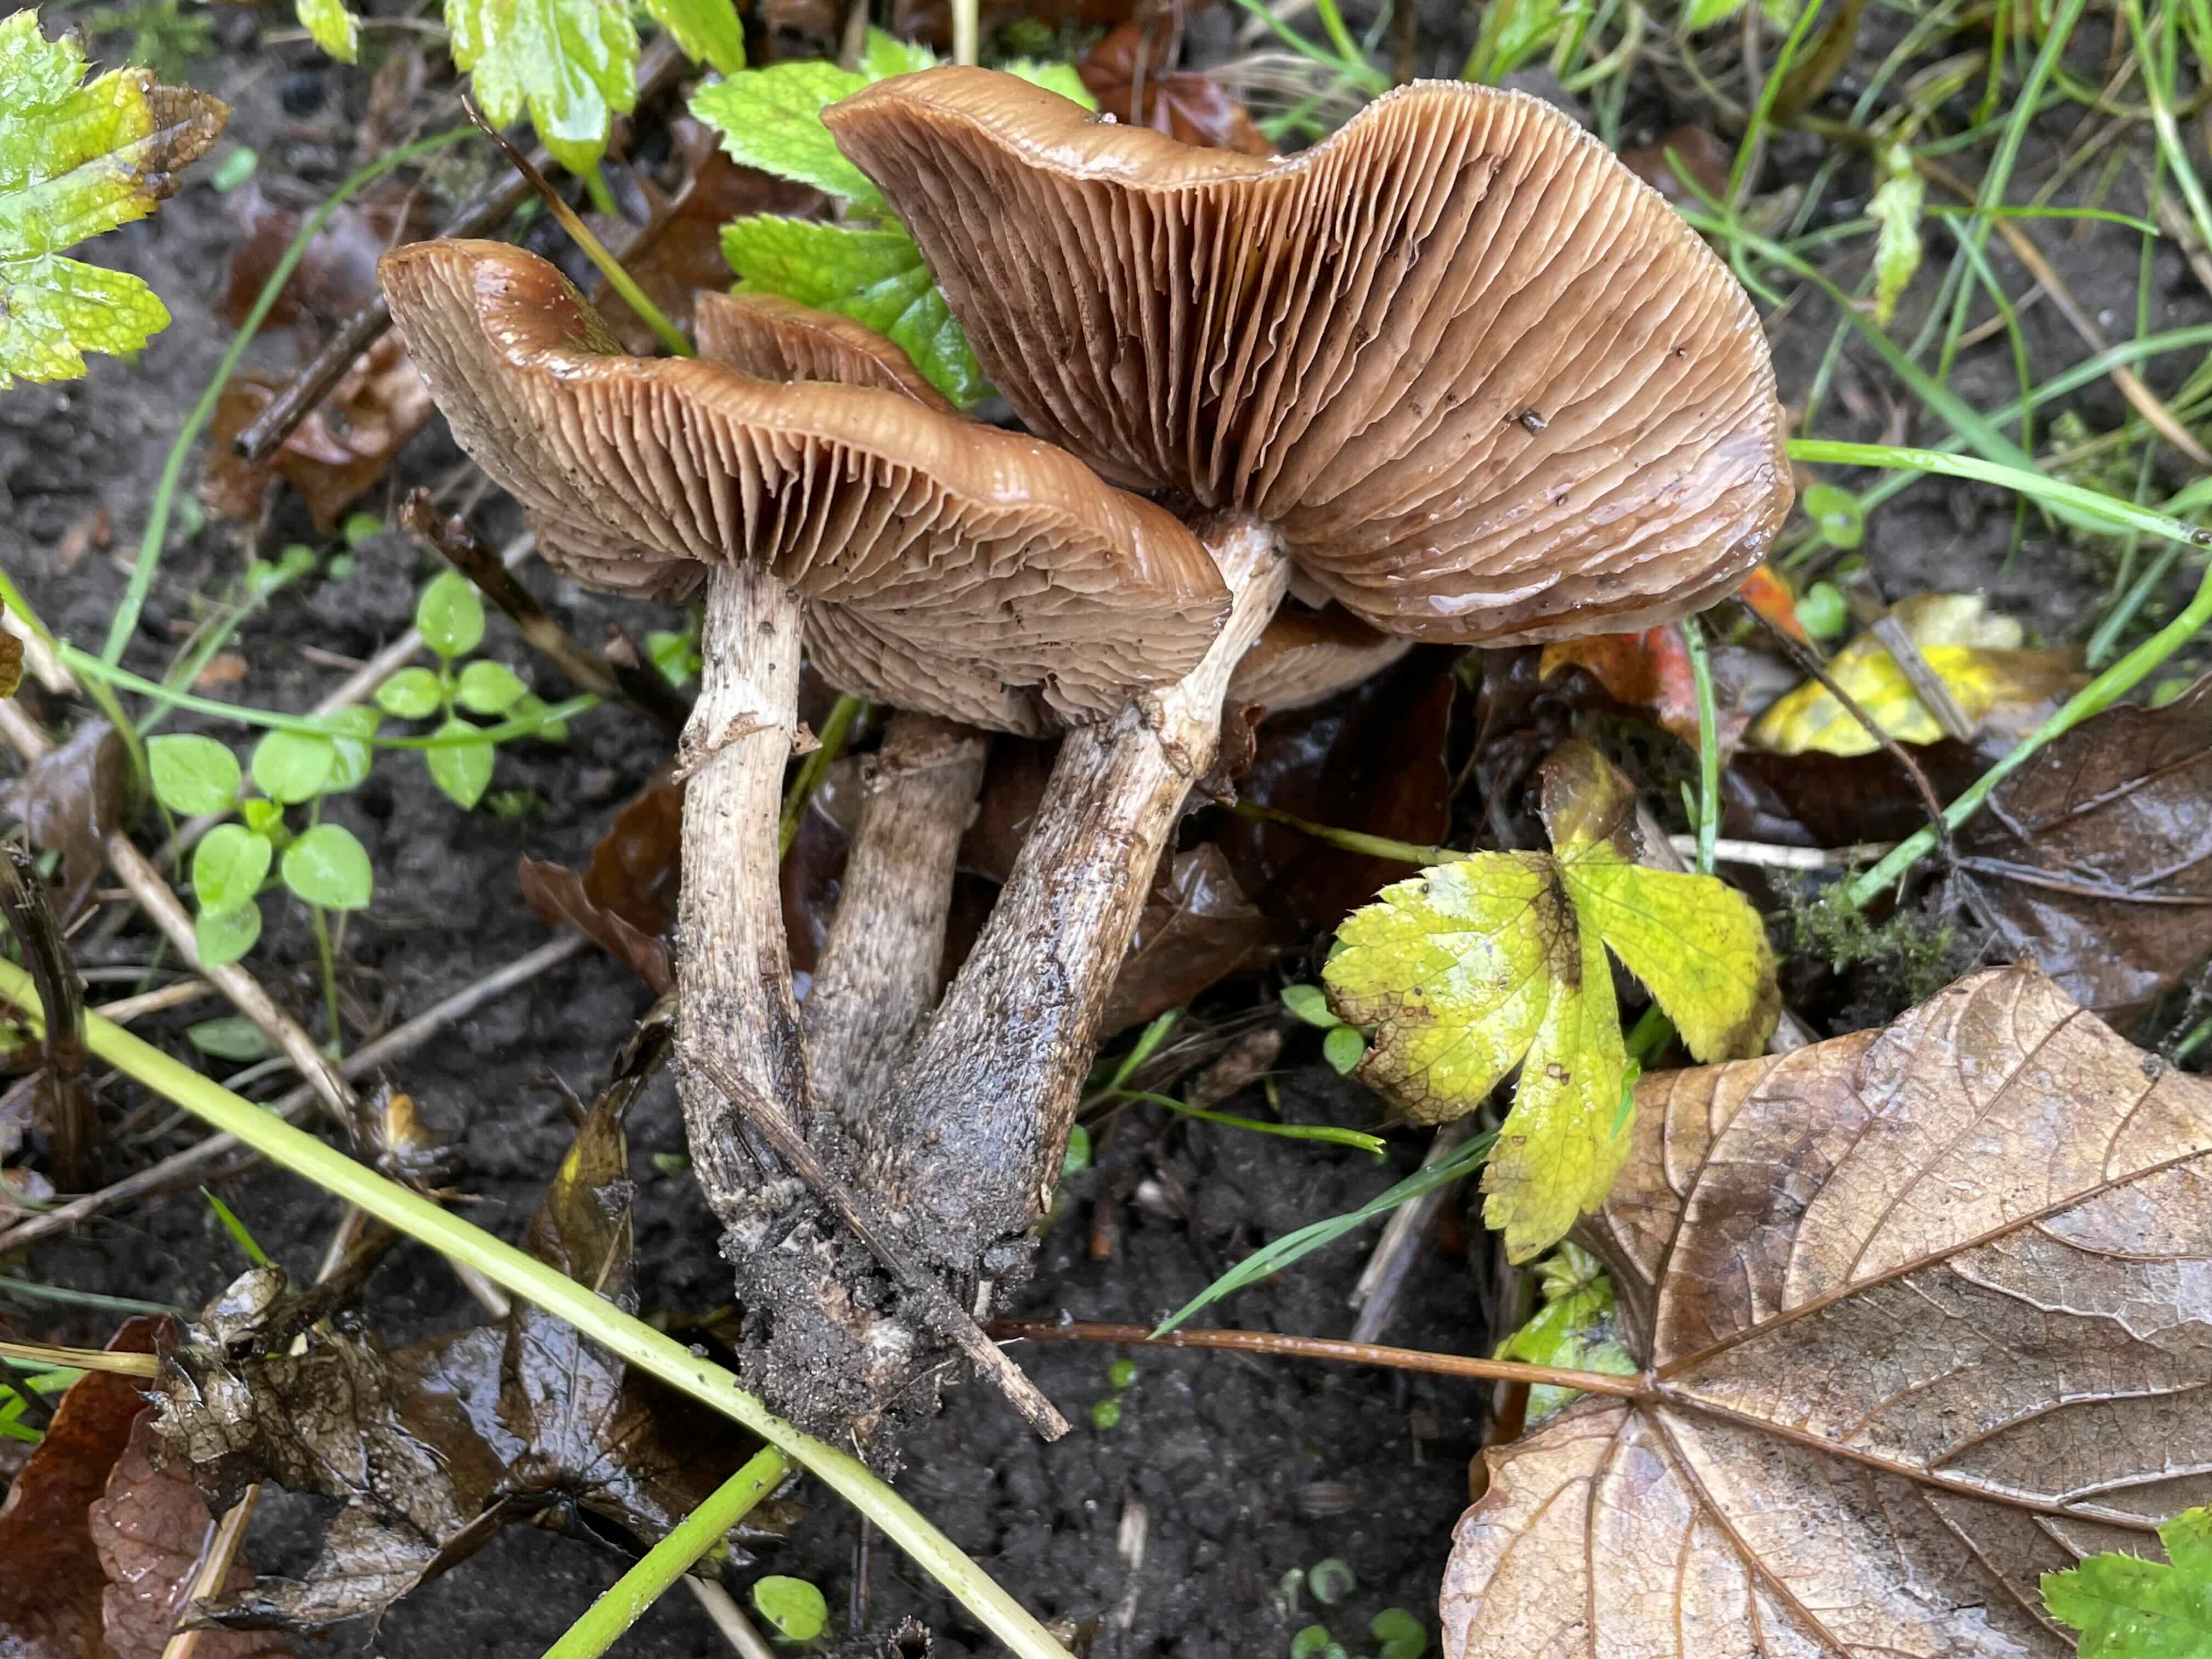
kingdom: Fungi
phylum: Basidiomycota
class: Agaricomycetes
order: Agaricales
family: Tubariaceae
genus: Cyclocybe
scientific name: Cyclocybe erebia
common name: mørk agerhat
